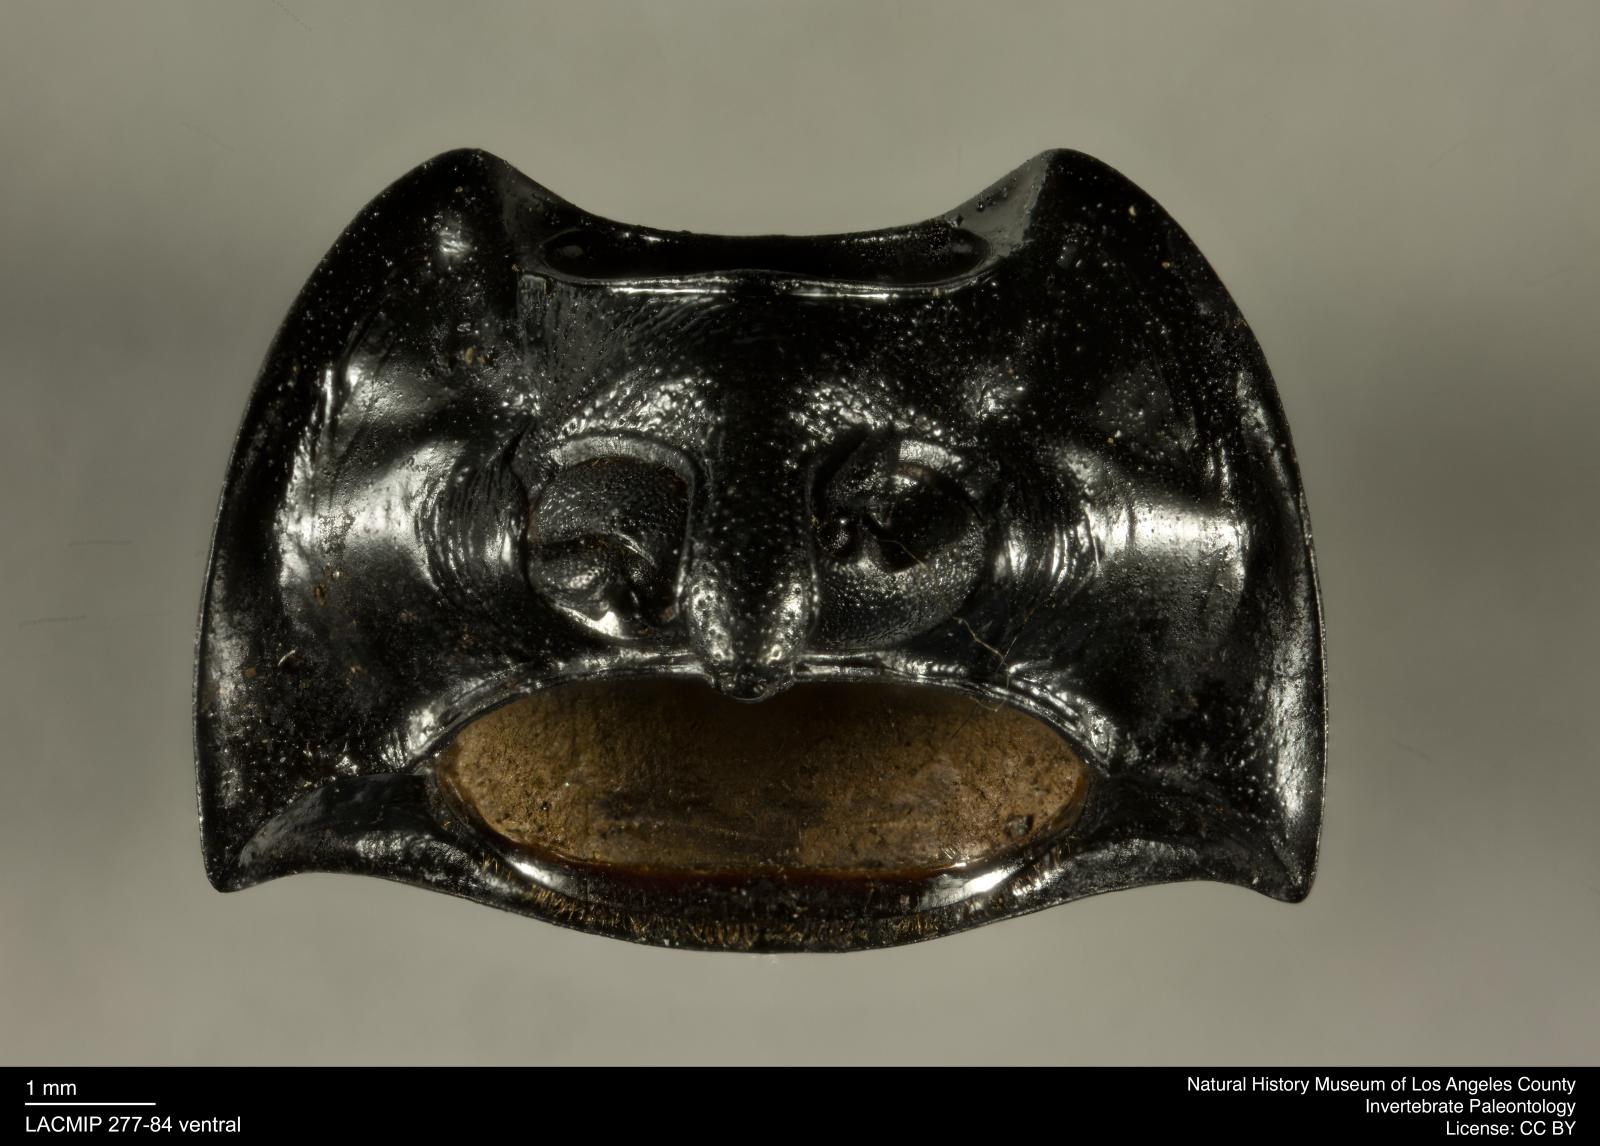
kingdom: Animalia
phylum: Arthropoda
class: Insecta
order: Coleoptera
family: Tenebrionidae
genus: Coniontis
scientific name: Coniontis abdominalis
